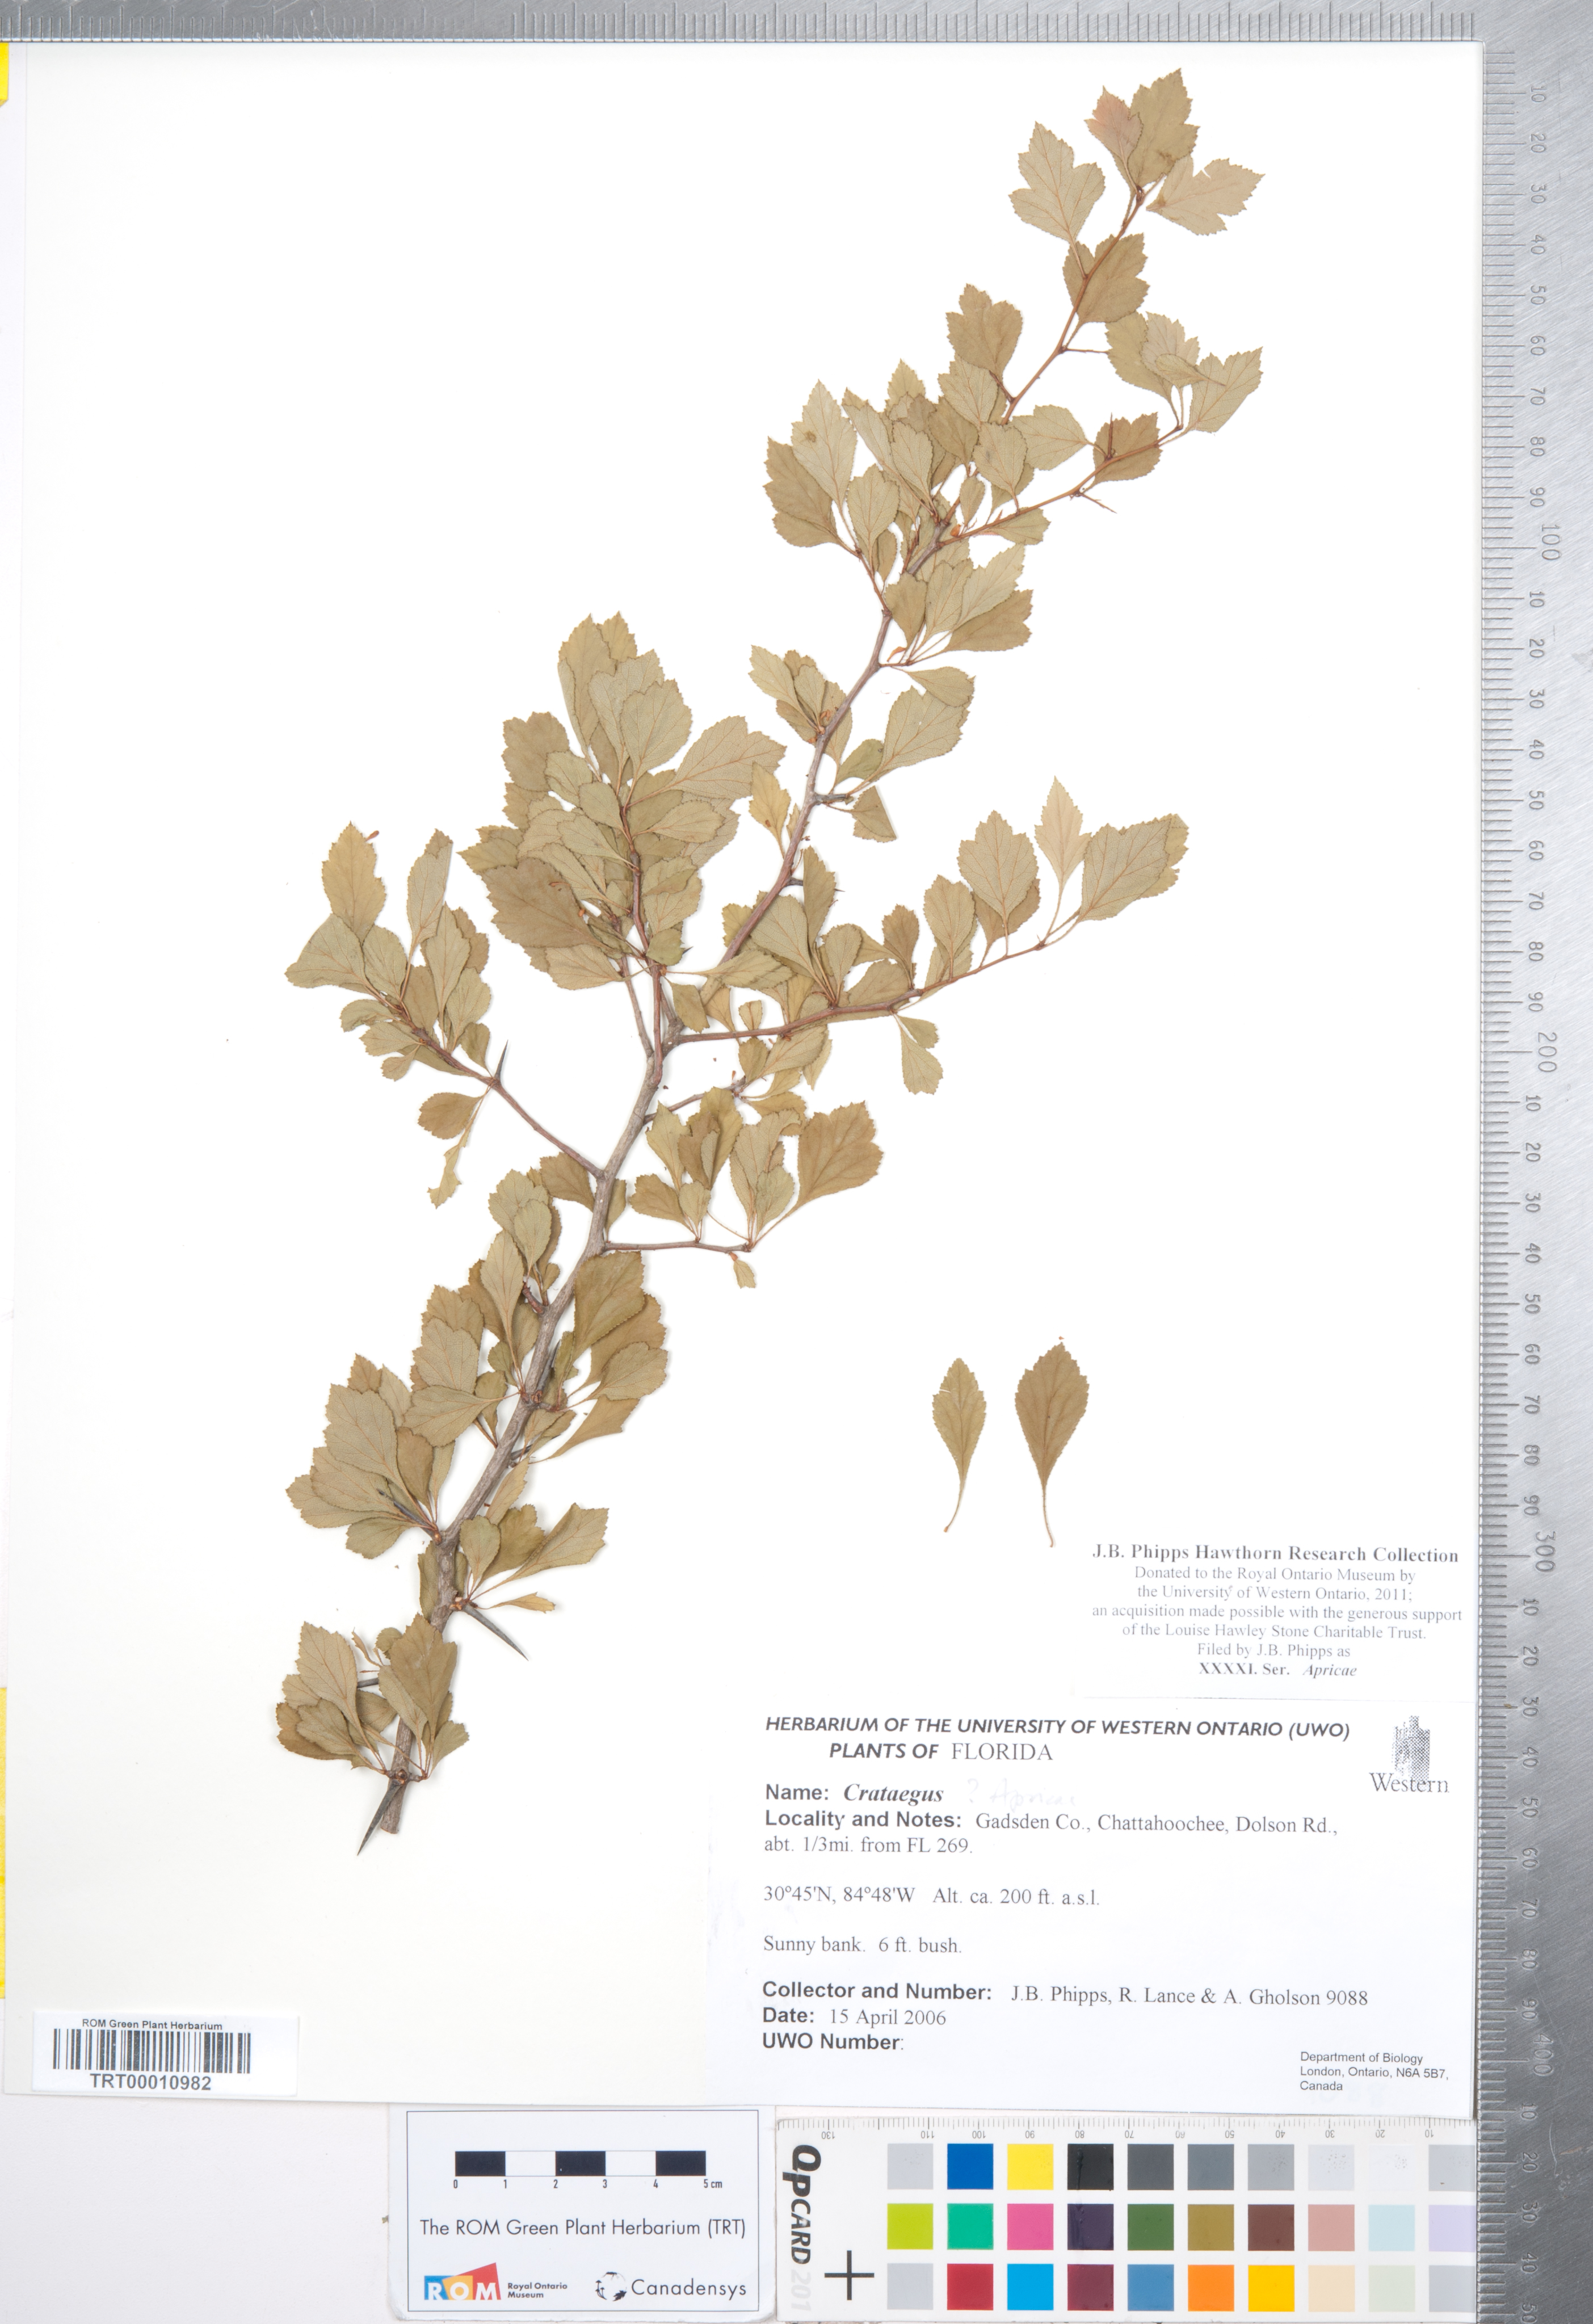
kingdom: Plantae
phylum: Tracheophyta
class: Magnoliopsida
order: Rosales
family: Rosaceae
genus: Crataegus
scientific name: Crataegus
